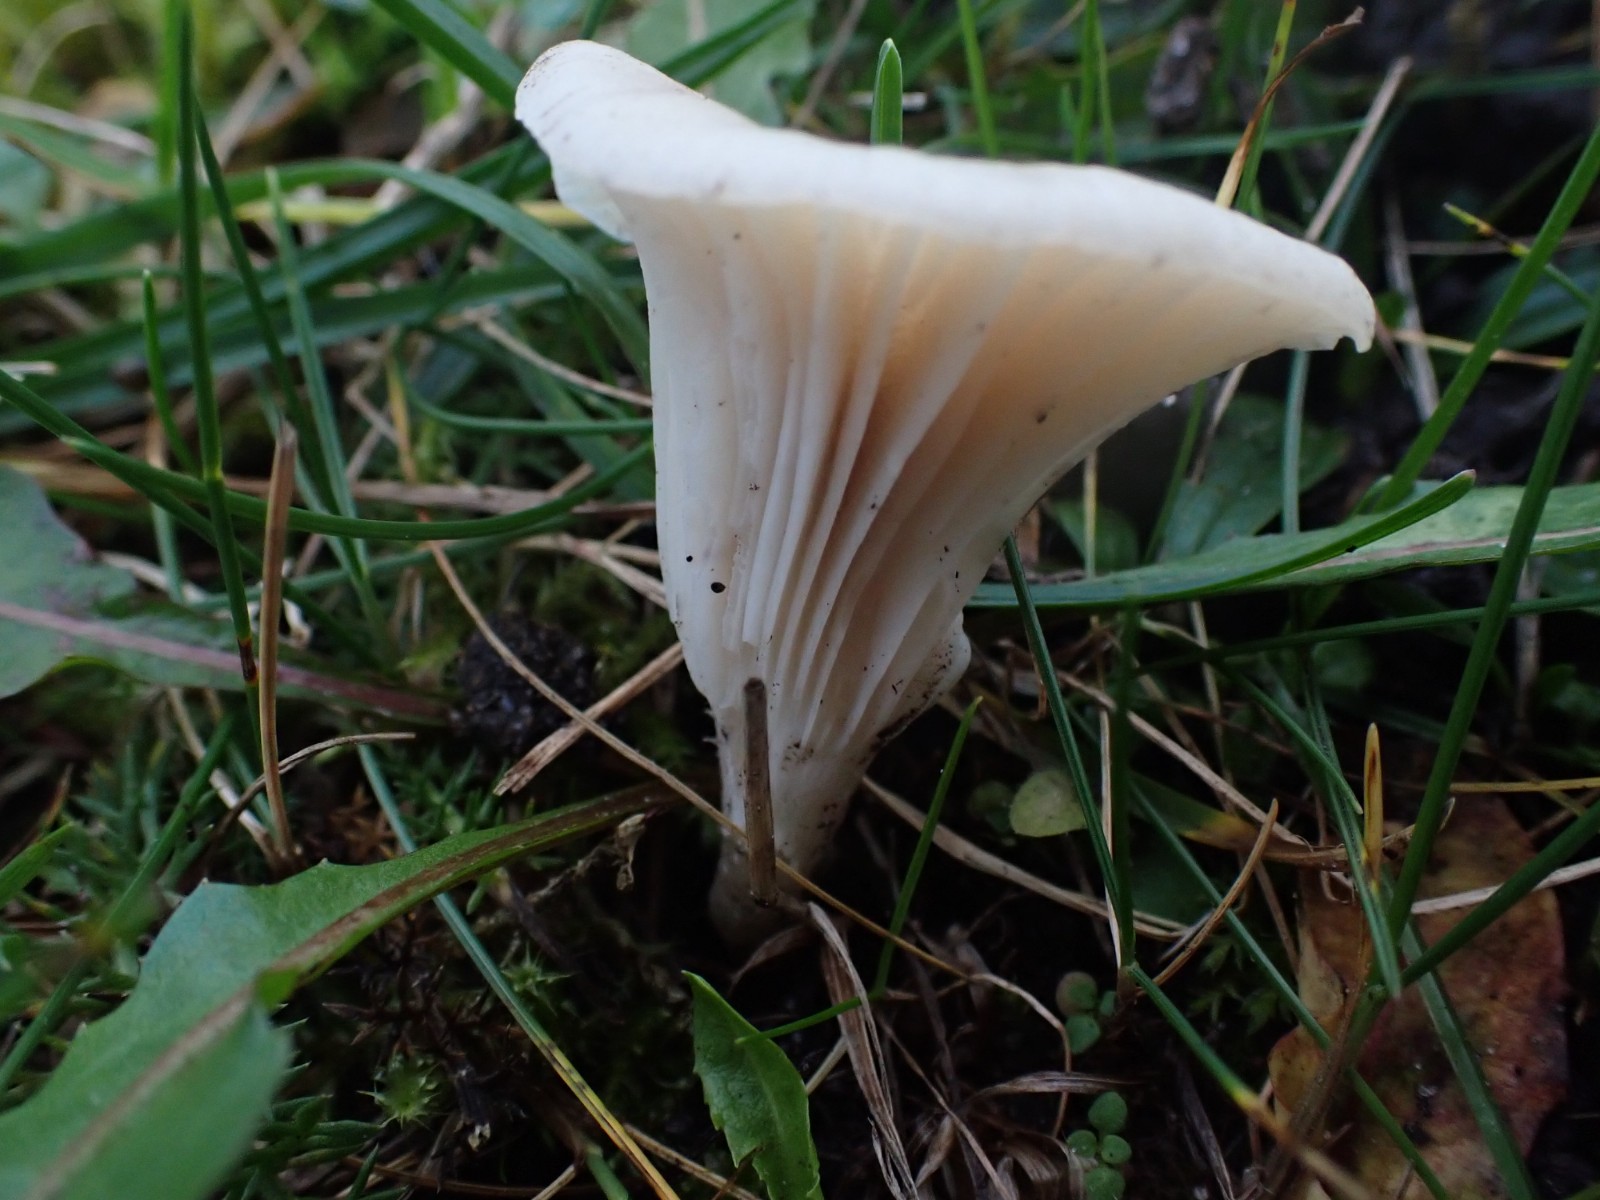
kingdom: Fungi
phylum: Basidiomycota
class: Agaricomycetes
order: Agaricales
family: Hygrophoraceae
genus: Cuphophyllus
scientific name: Cuphophyllus virgineus
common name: snehvid vokshat
